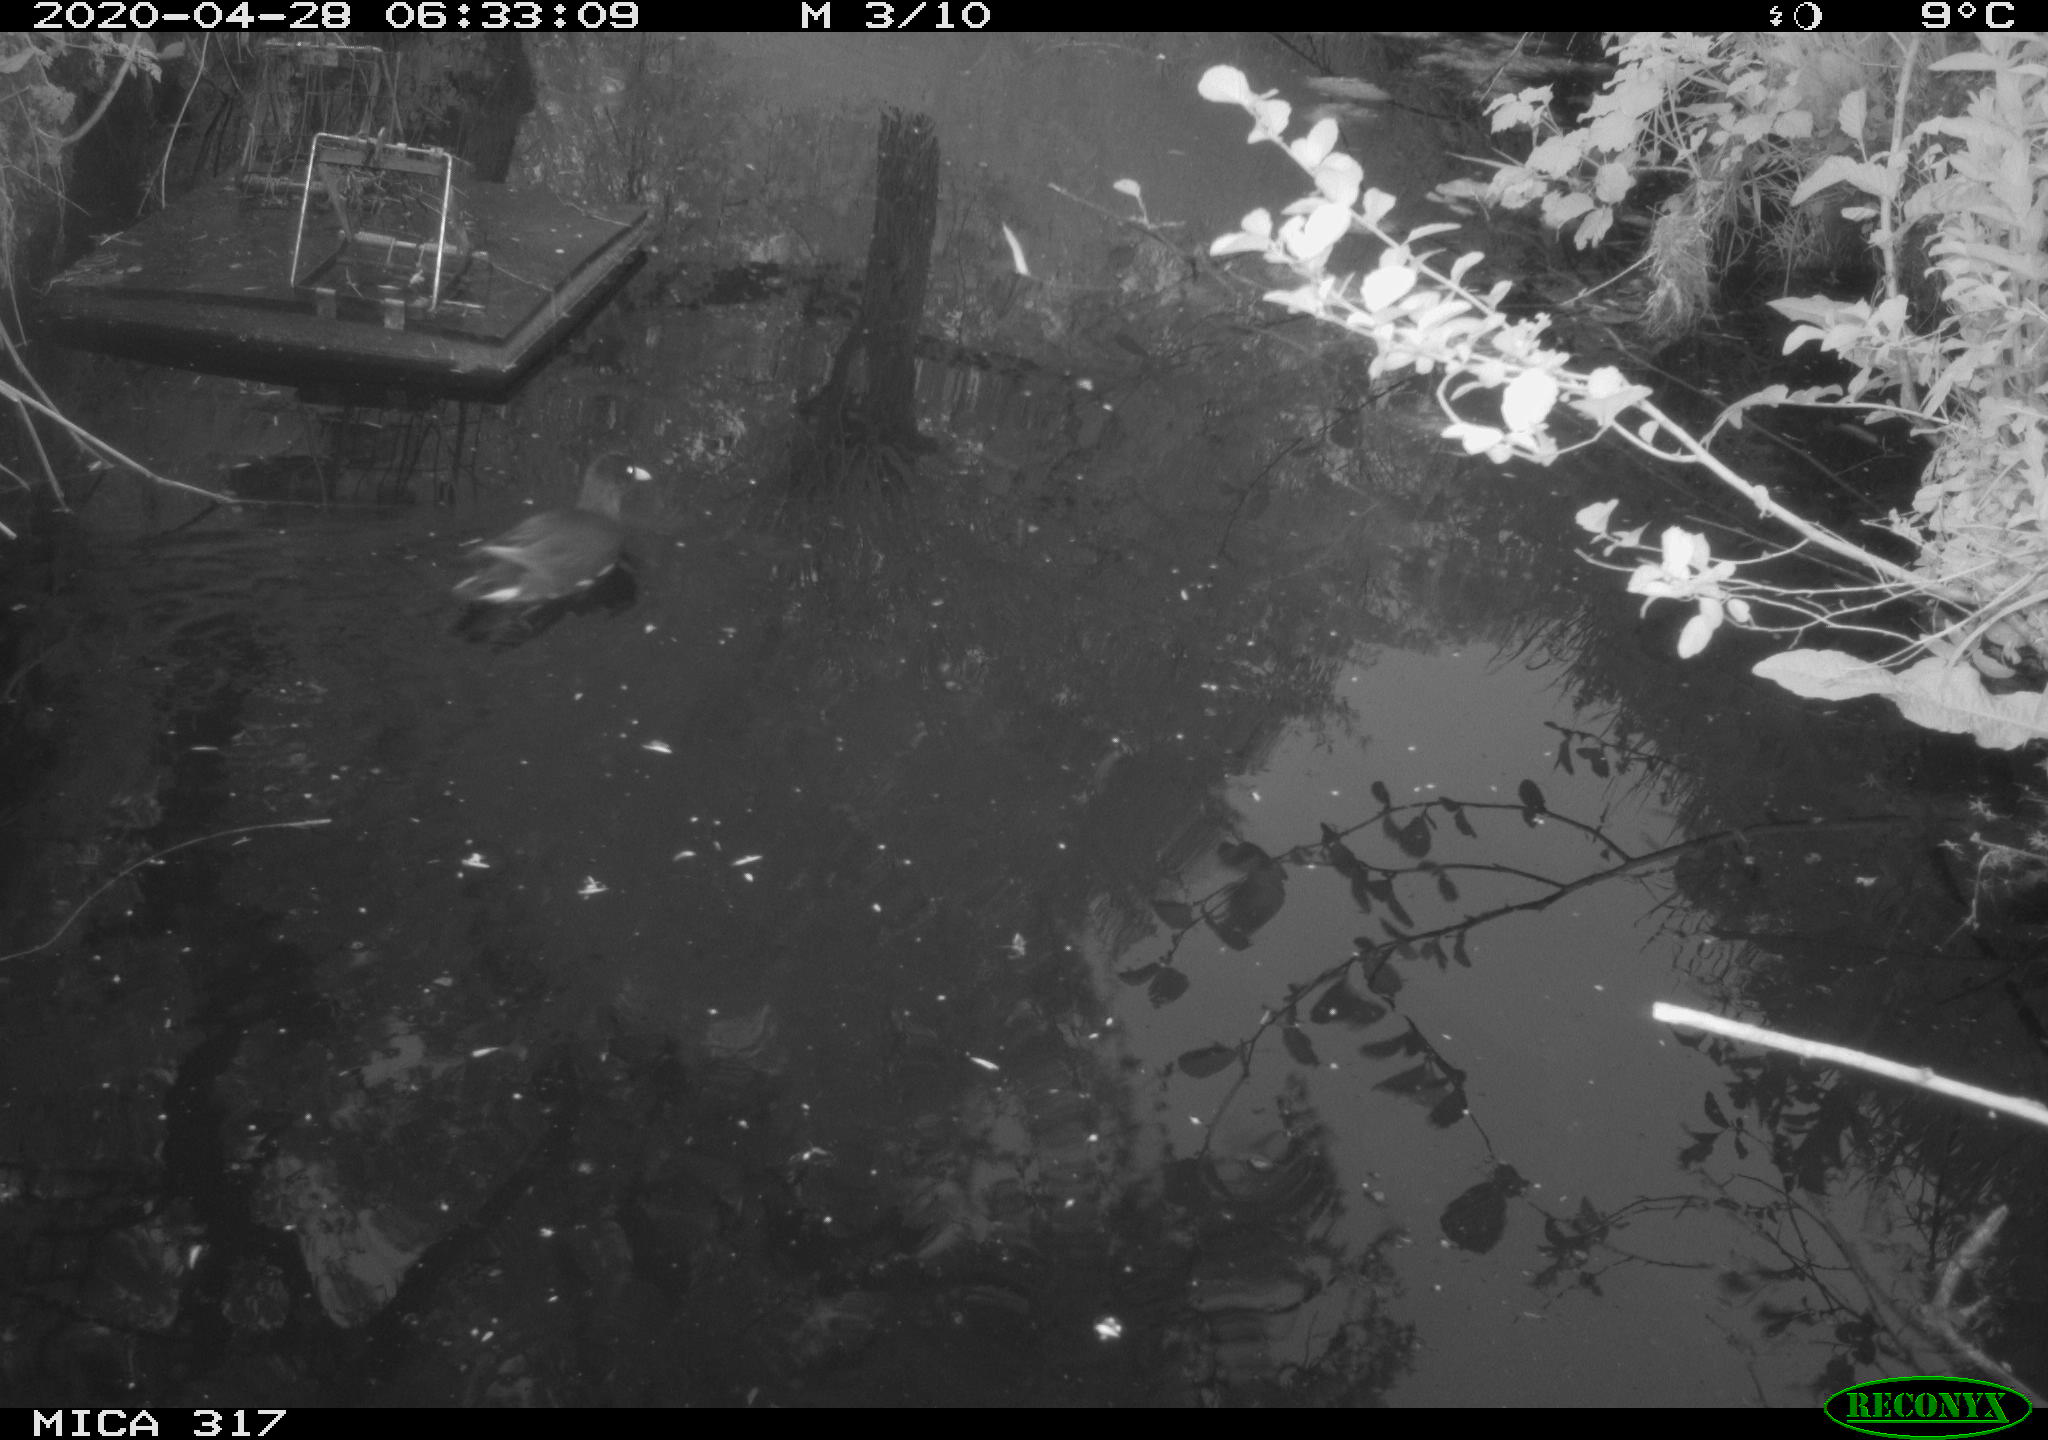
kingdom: Animalia
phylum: Chordata
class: Aves
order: Gruiformes
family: Rallidae
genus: Gallinula
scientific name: Gallinula chloropus
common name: Common moorhen
